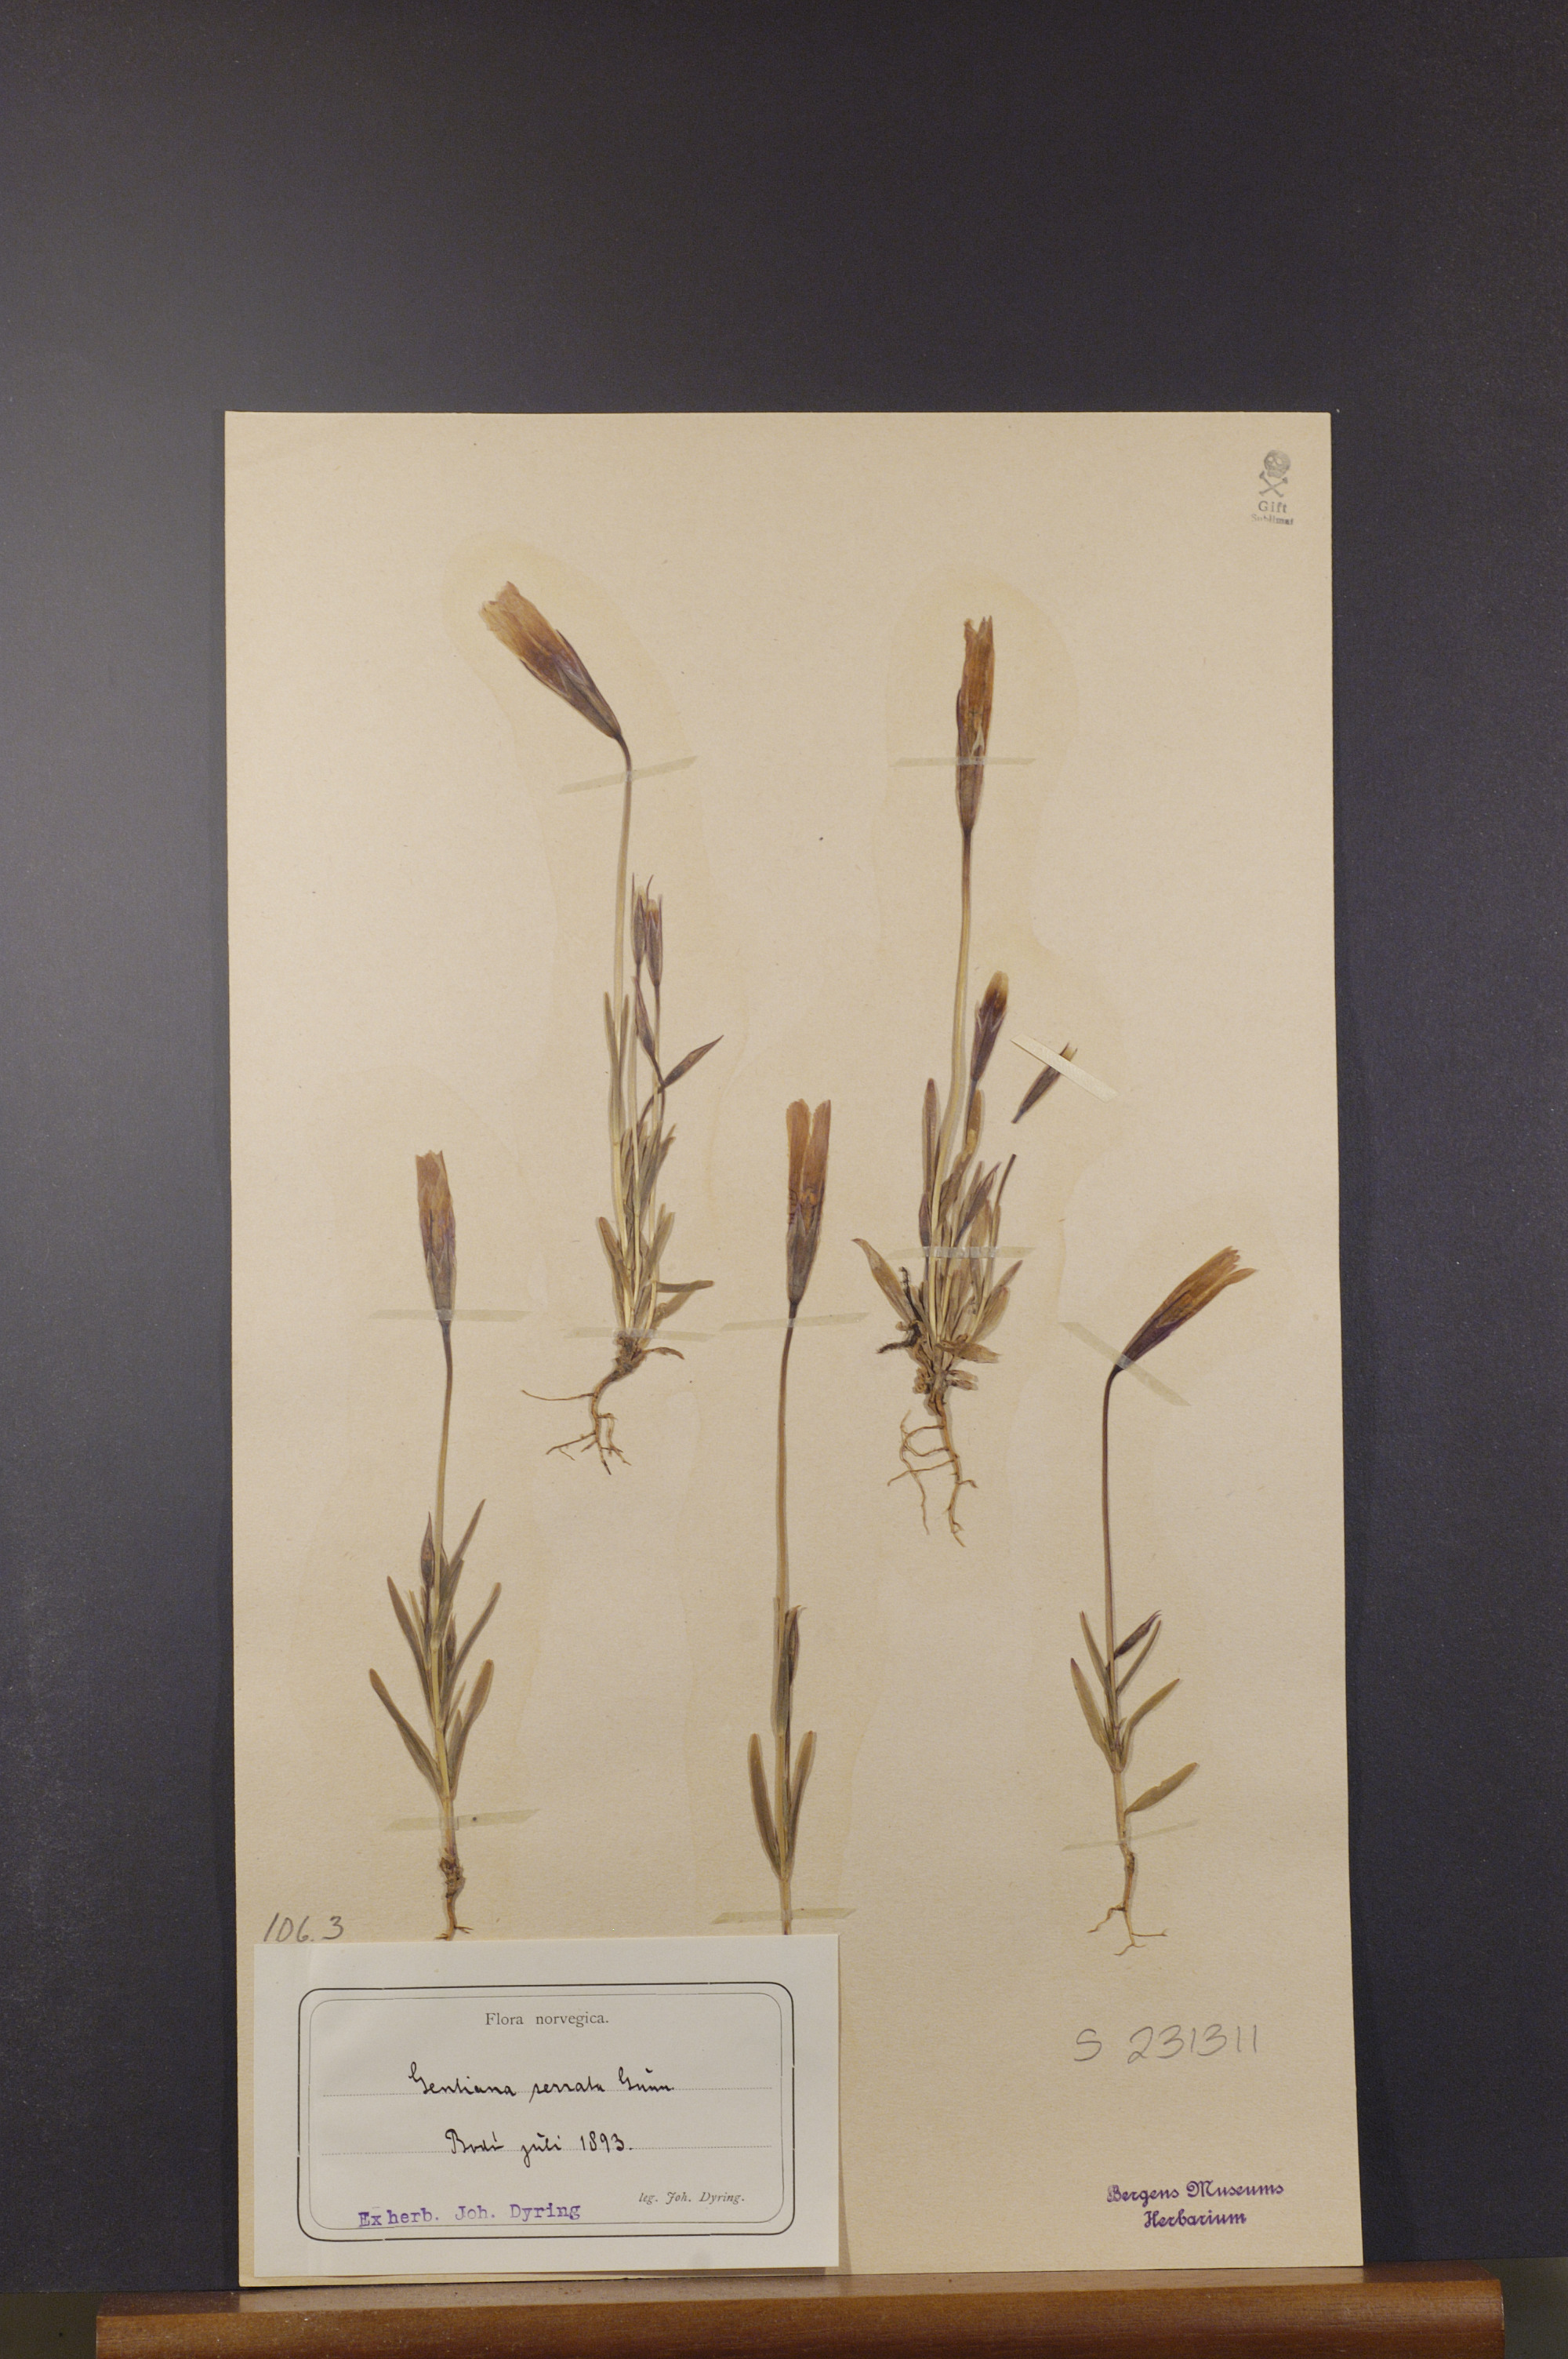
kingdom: Plantae
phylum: Tracheophyta
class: Magnoliopsida
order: Gentianales
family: Gentianaceae
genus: Gentianopsis
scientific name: Gentianopsis detonsa
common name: Fringed-gentian
